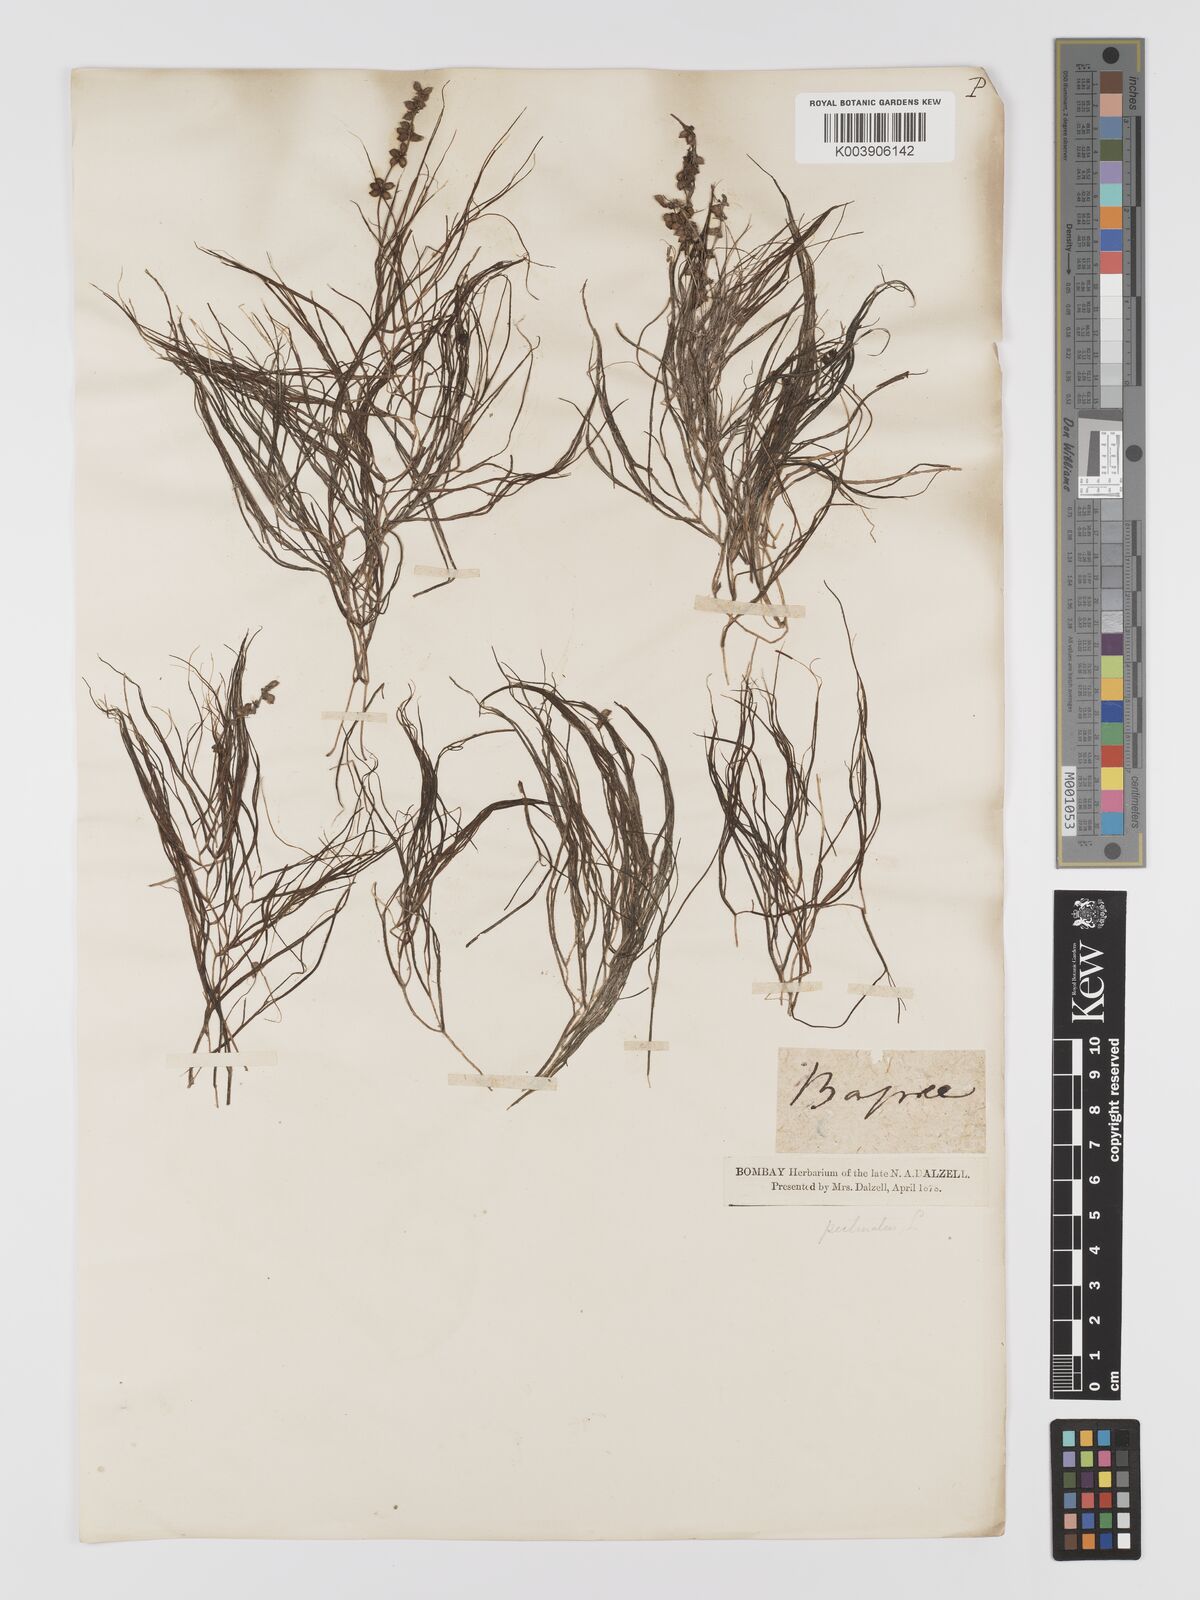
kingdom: Plantae
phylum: Tracheophyta
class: Liliopsida
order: Alismatales
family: Potamogetonaceae
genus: Stuckenia
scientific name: Stuckenia pectinata
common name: Sago pondweed
